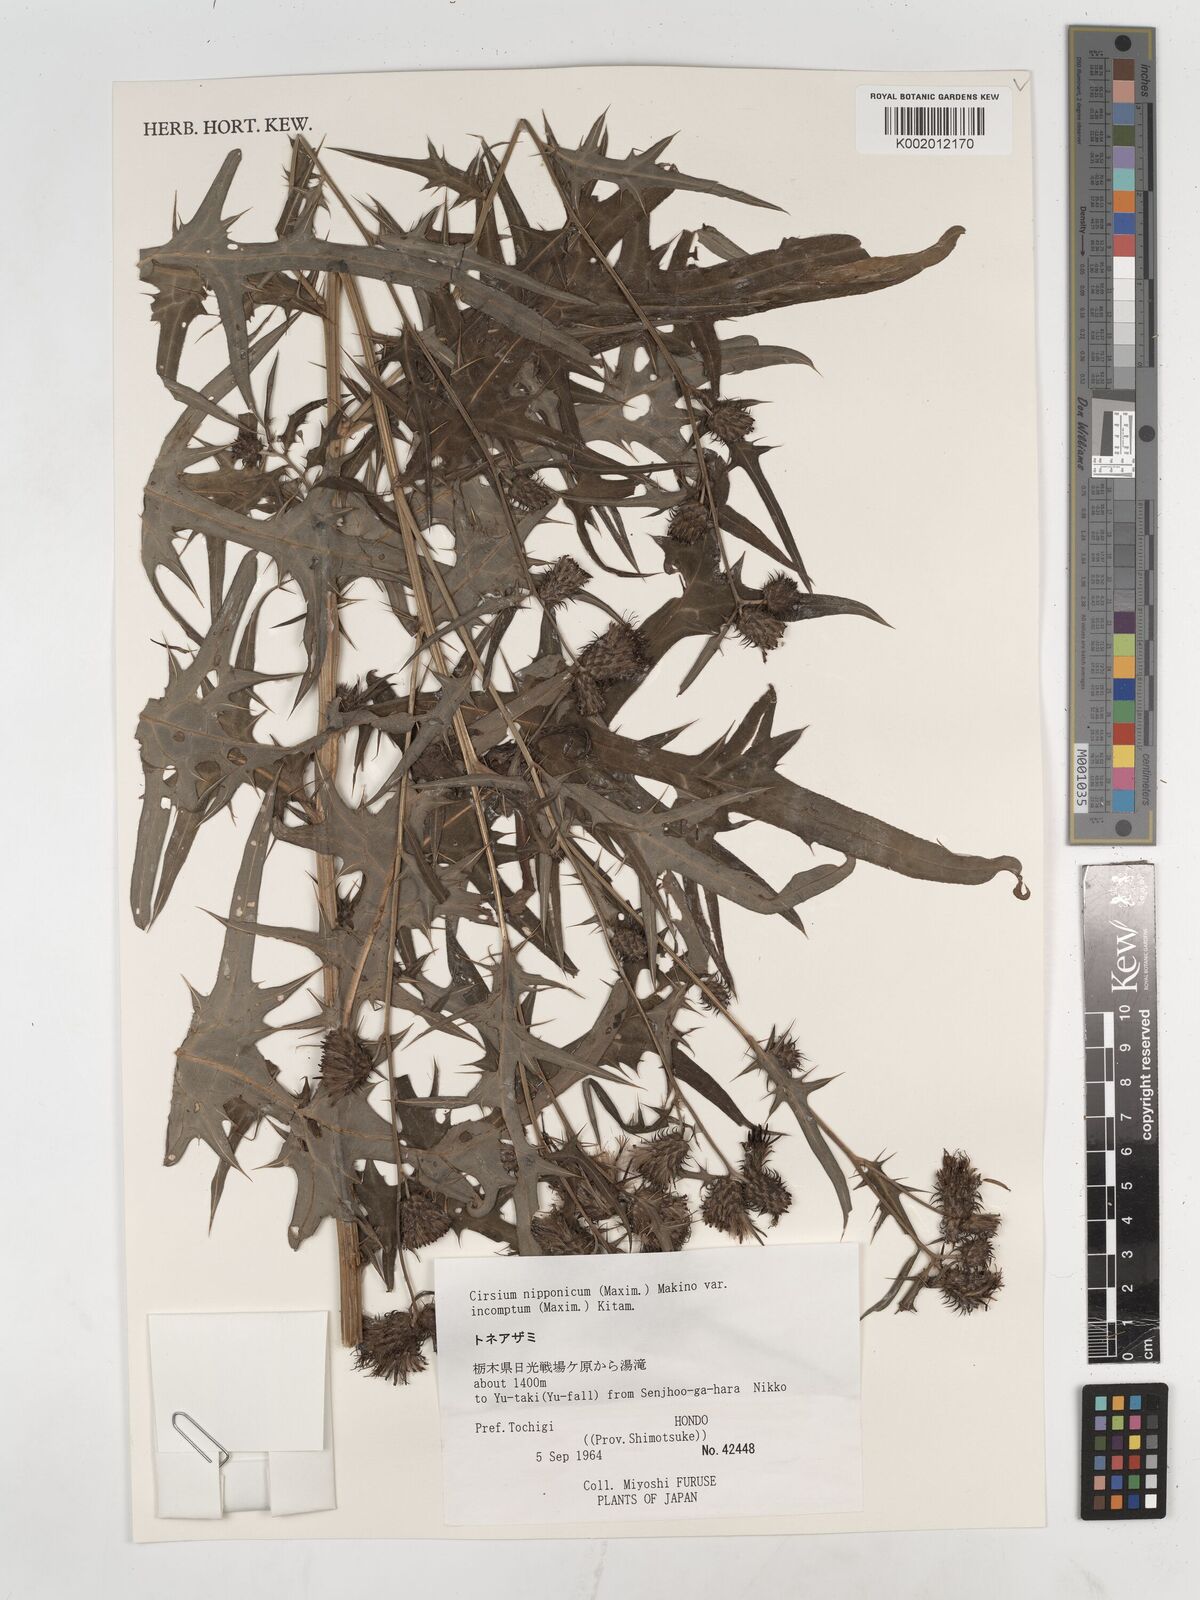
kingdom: Plantae
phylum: Tracheophyta
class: Magnoliopsida
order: Asterales
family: Asteraceae
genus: Cirsium
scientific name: Cirsium nipponicum
